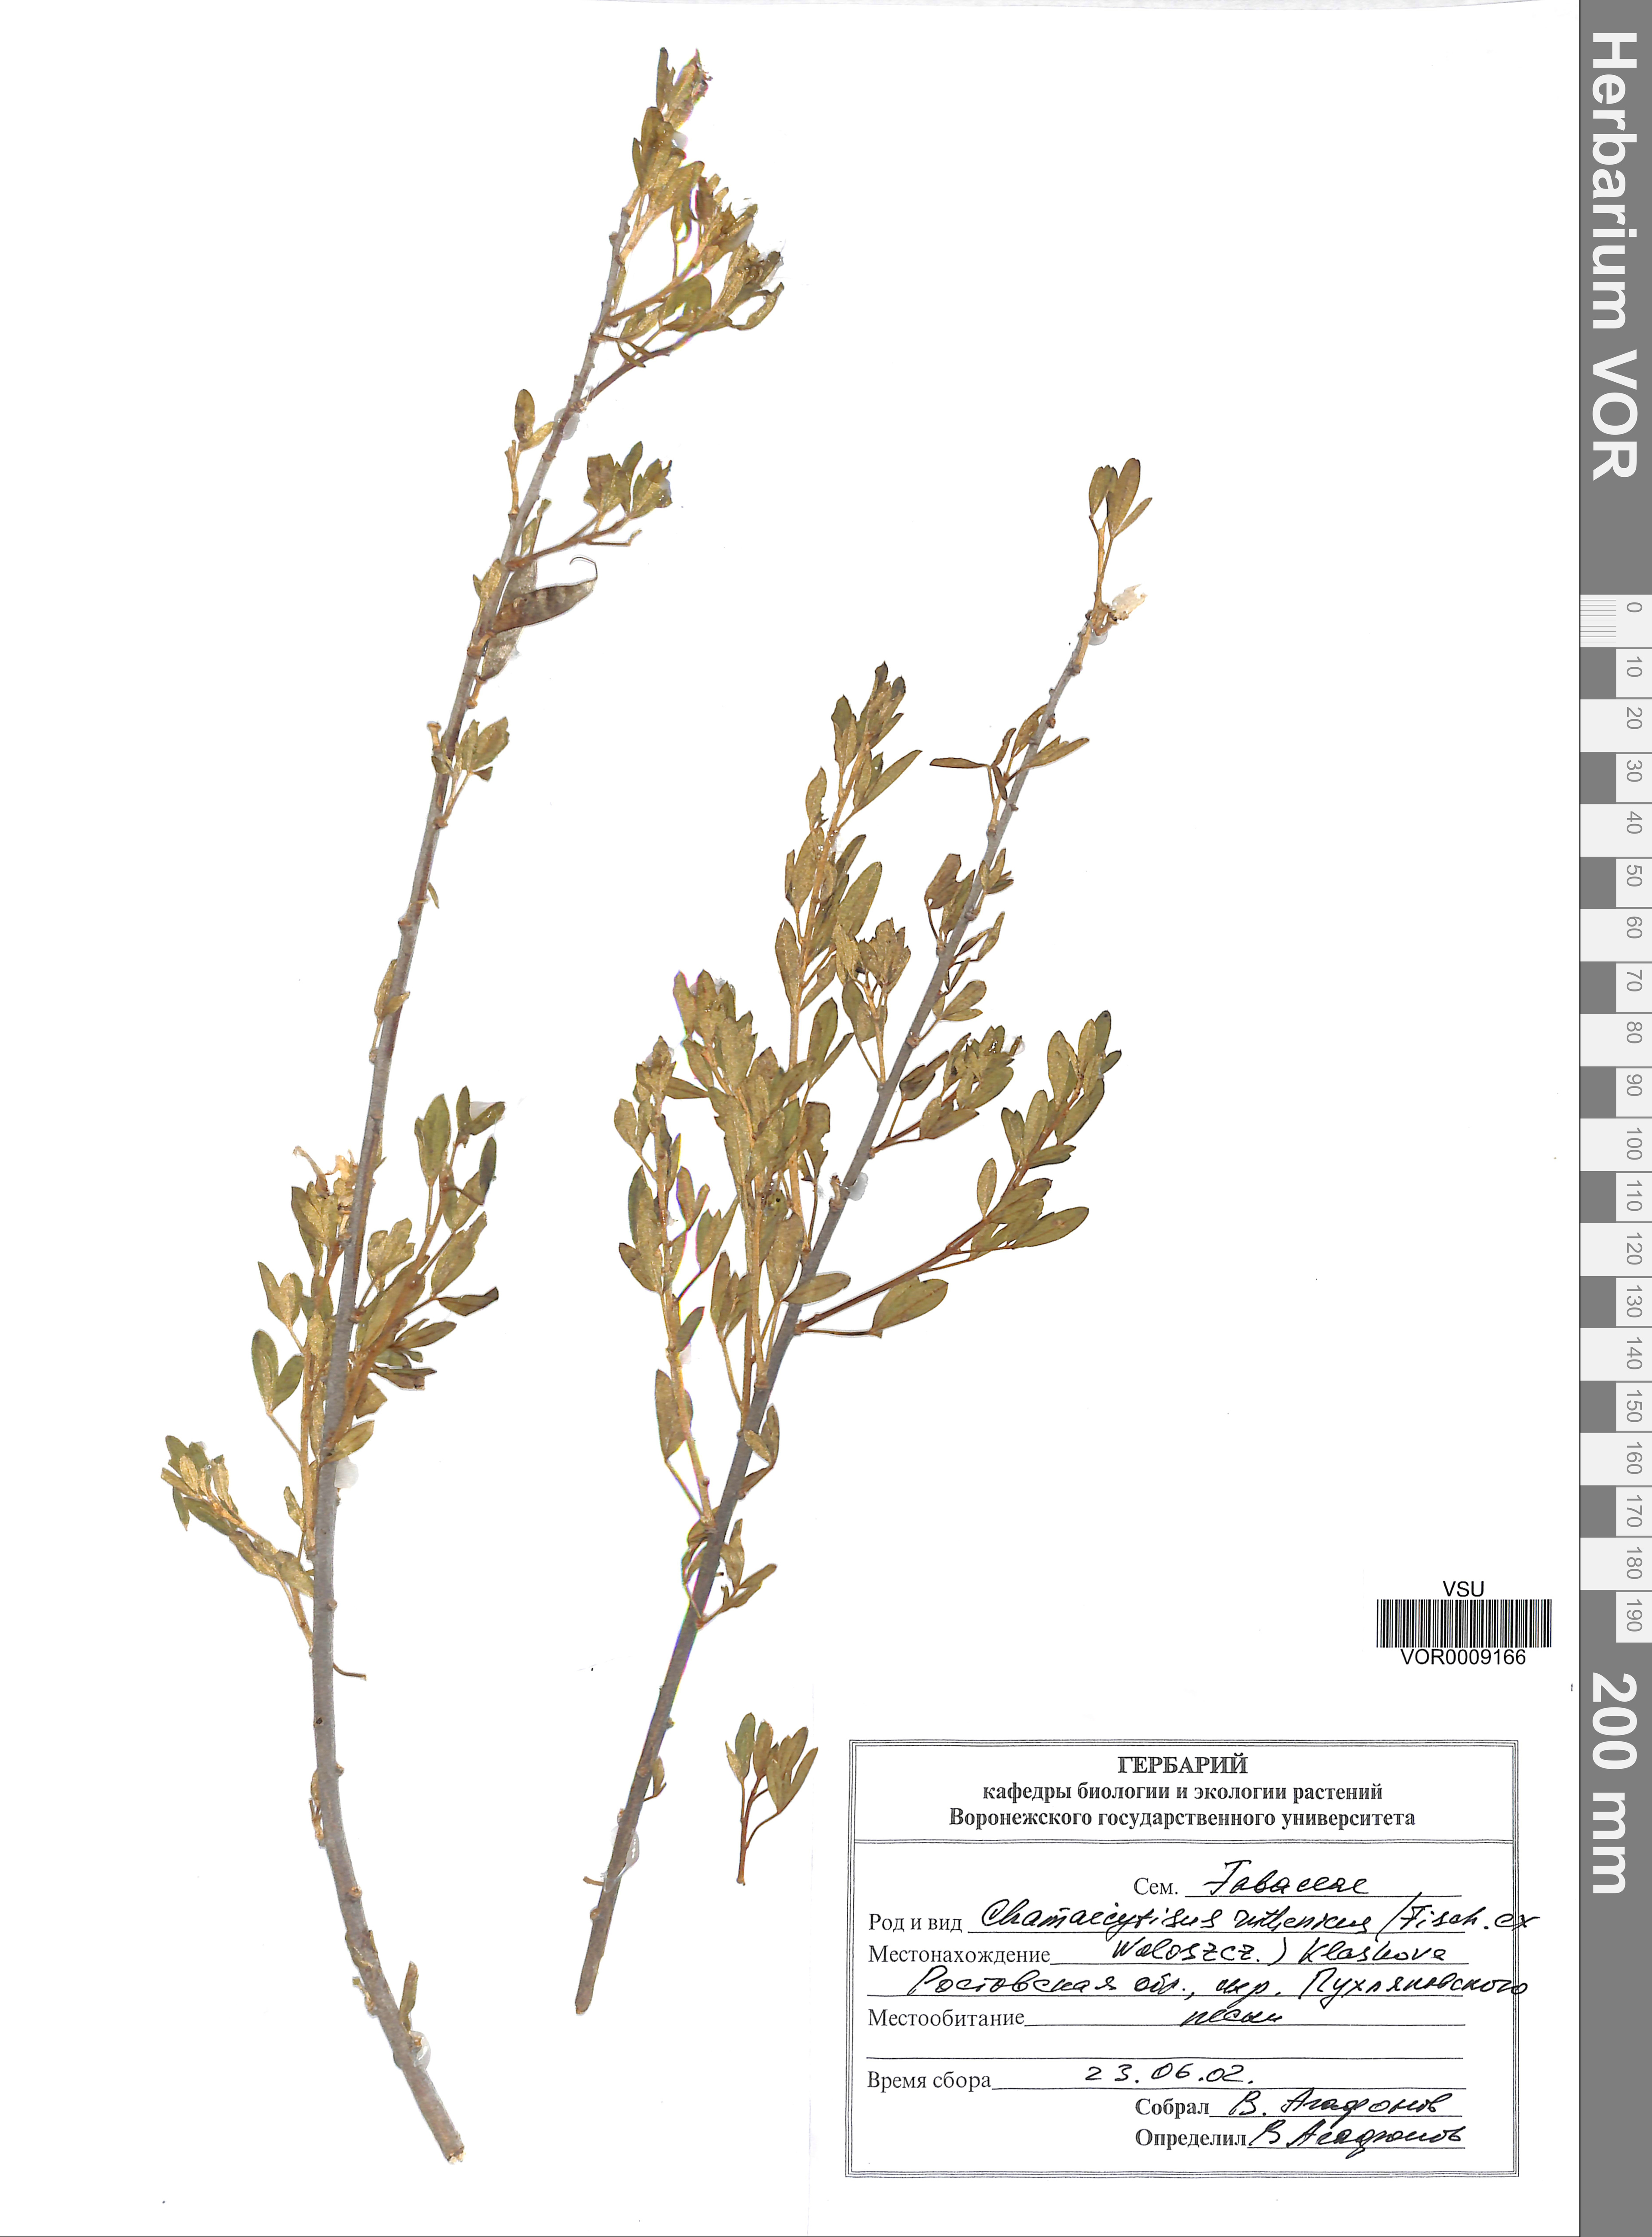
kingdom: Plantae
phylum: Tracheophyta
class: Magnoliopsida
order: Fabales
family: Fabaceae
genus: Chamaecytisus
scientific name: Chamaecytisus ruthenicus
